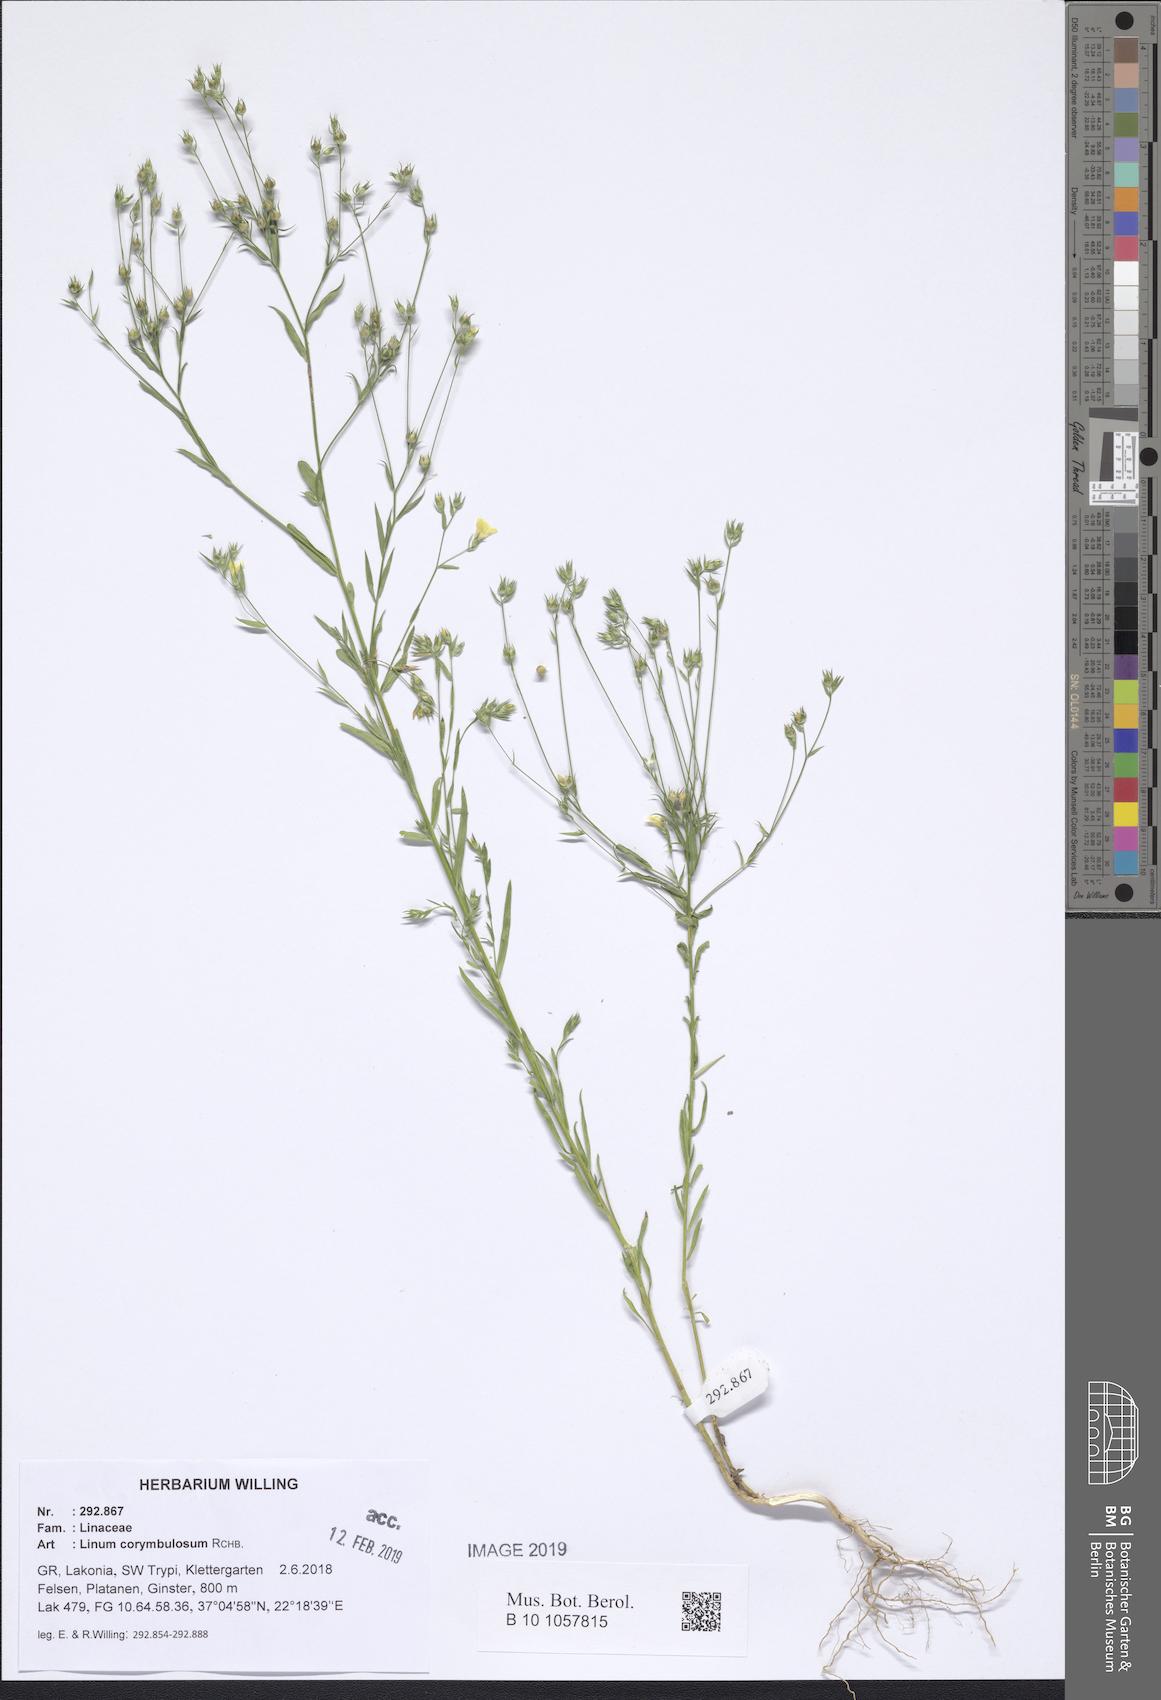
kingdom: Plantae
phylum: Tracheophyta
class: Magnoliopsida
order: Malpighiales
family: Linaceae
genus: Linum
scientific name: Linum corymbulosum
